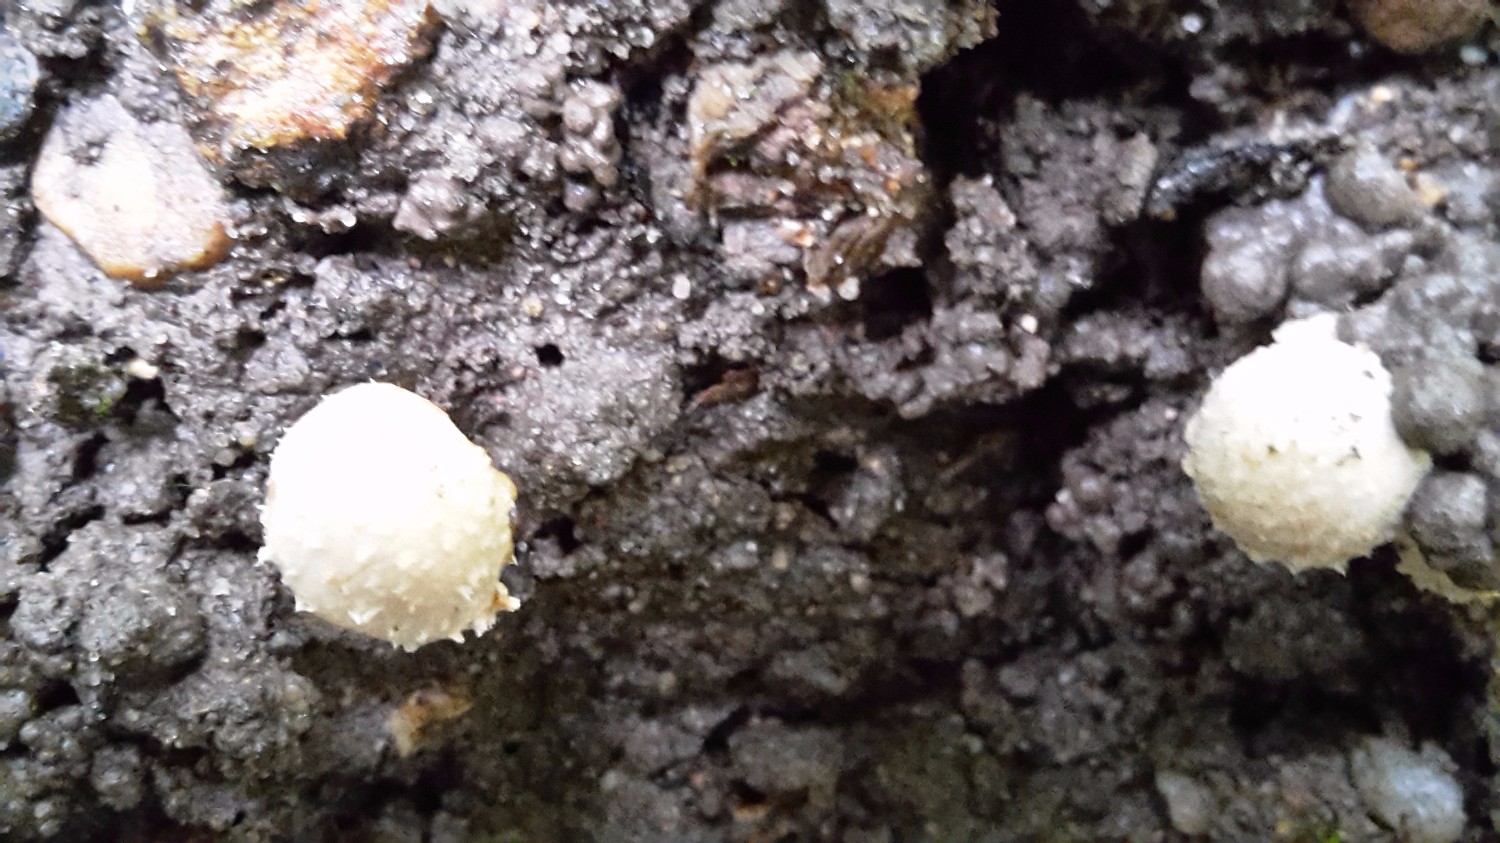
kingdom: Fungi
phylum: Basidiomycota
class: Agaricomycetes
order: Agaricales
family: Strophariaceae
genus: Pholiota
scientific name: Pholiota gummosa
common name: grøngul skælhat
